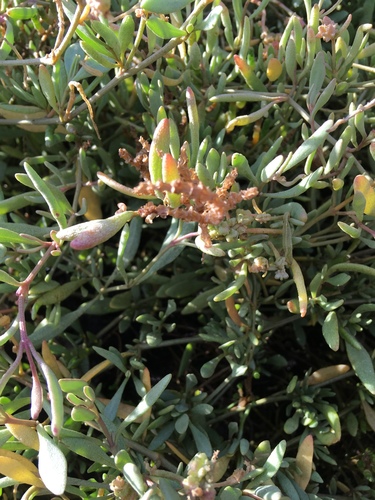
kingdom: Plantae
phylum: Tracheophyta
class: Magnoliopsida
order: Caryophyllales
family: Amaranthaceae
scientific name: Amaranthaceae
